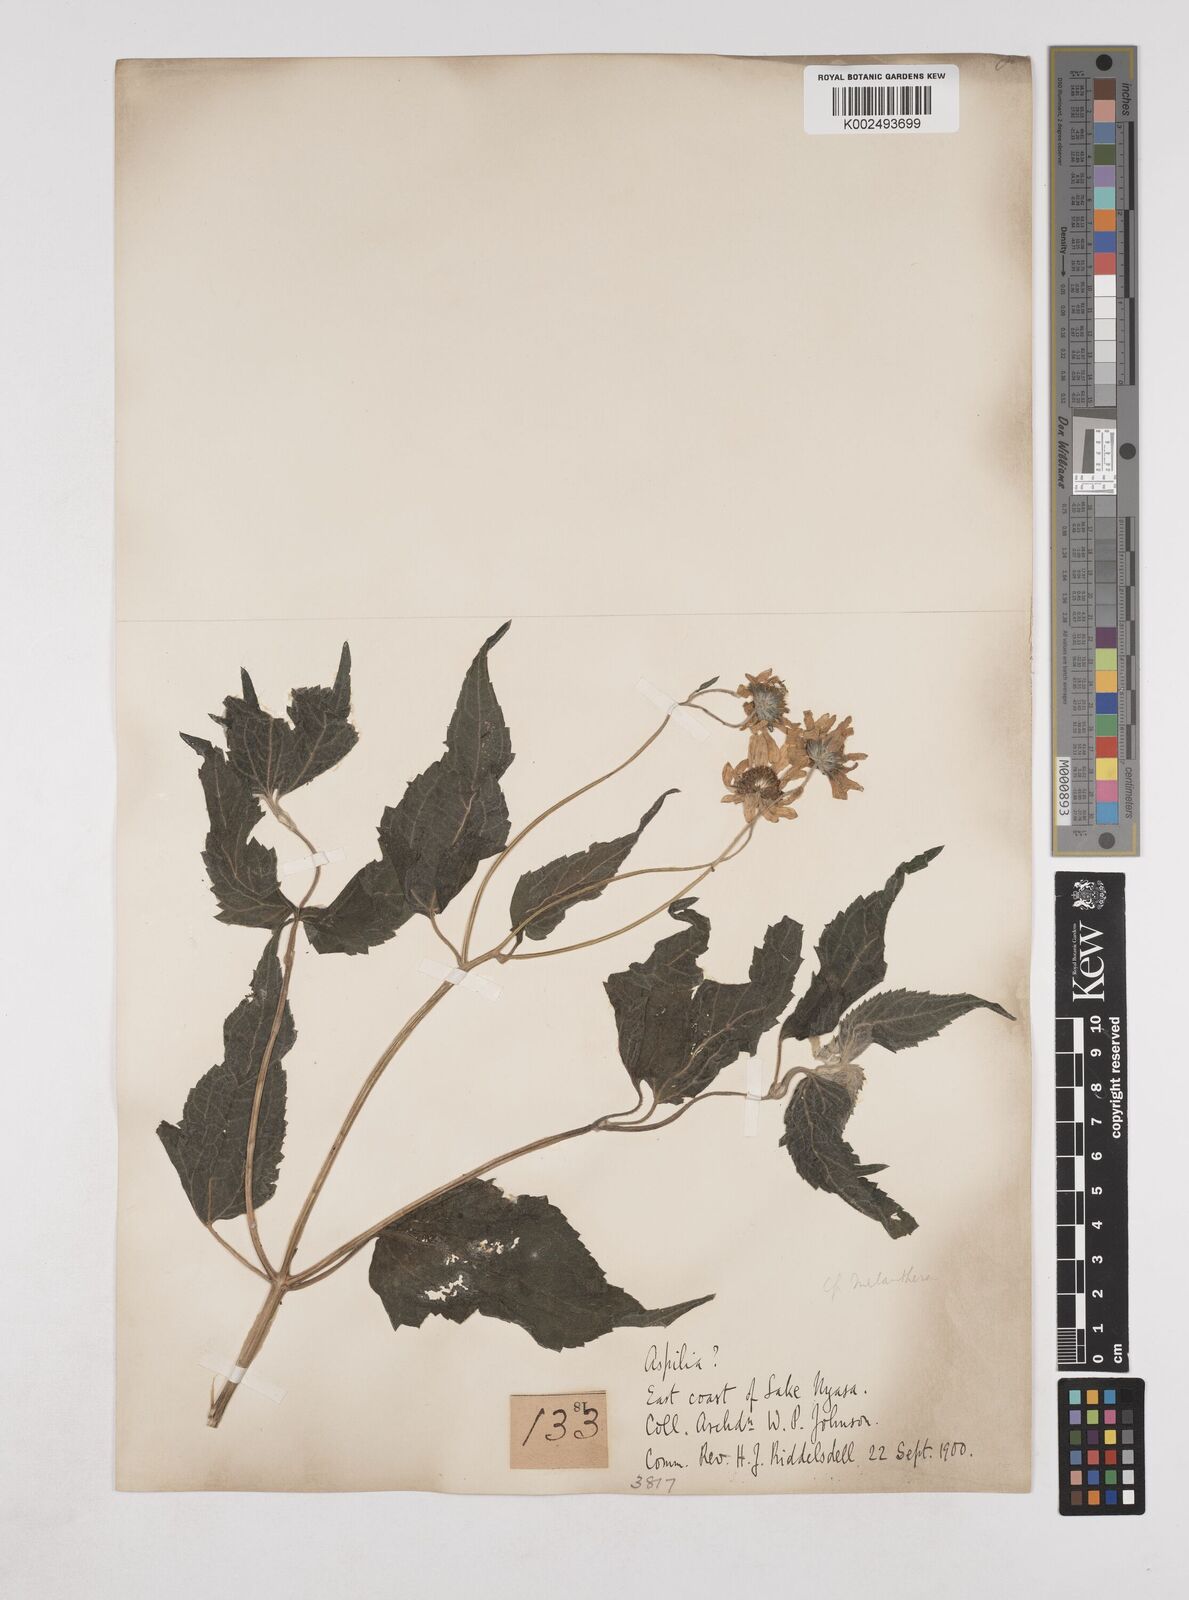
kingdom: Plantae
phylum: Tracheophyta
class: Magnoliopsida
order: Asterales
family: Asteraceae
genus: Lipotriche
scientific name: Lipotriche scandens
